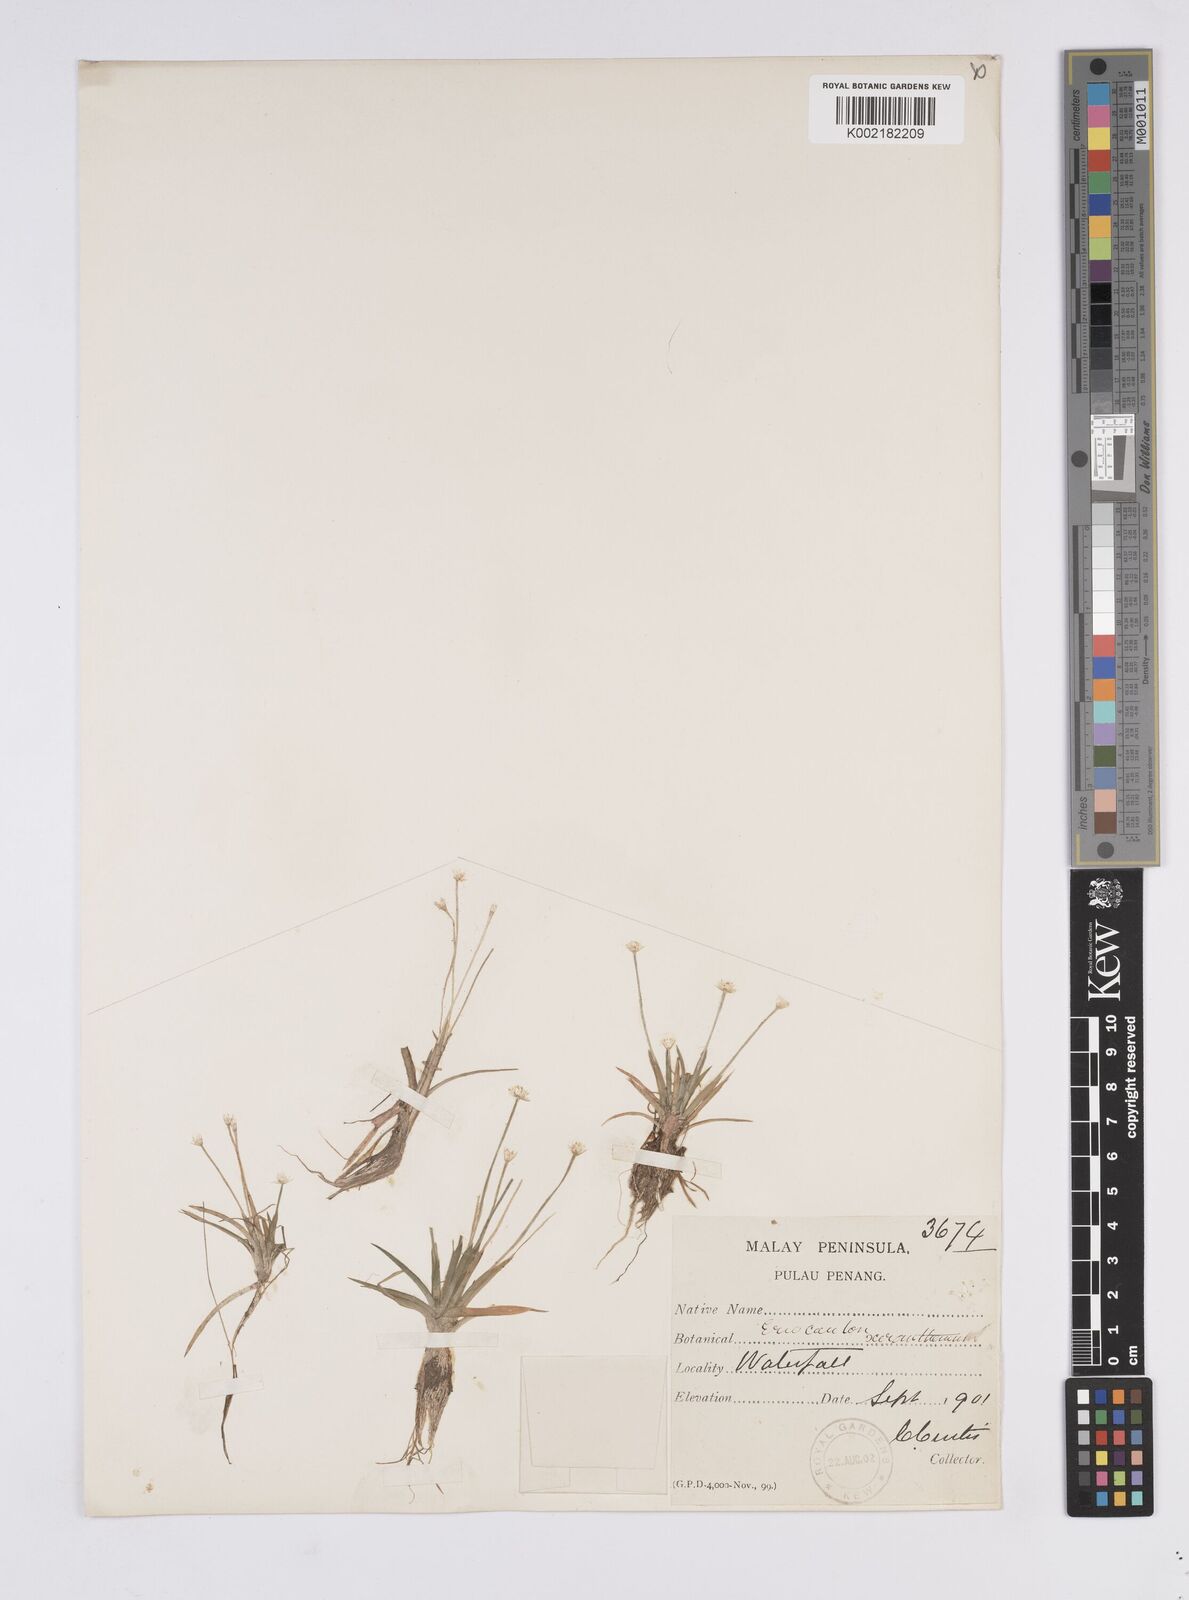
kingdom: Plantae
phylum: Tracheophyta
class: Liliopsida
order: Poales
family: Eriocaulaceae
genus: Eriocaulon
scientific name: Eriocaulon xeranthemum
